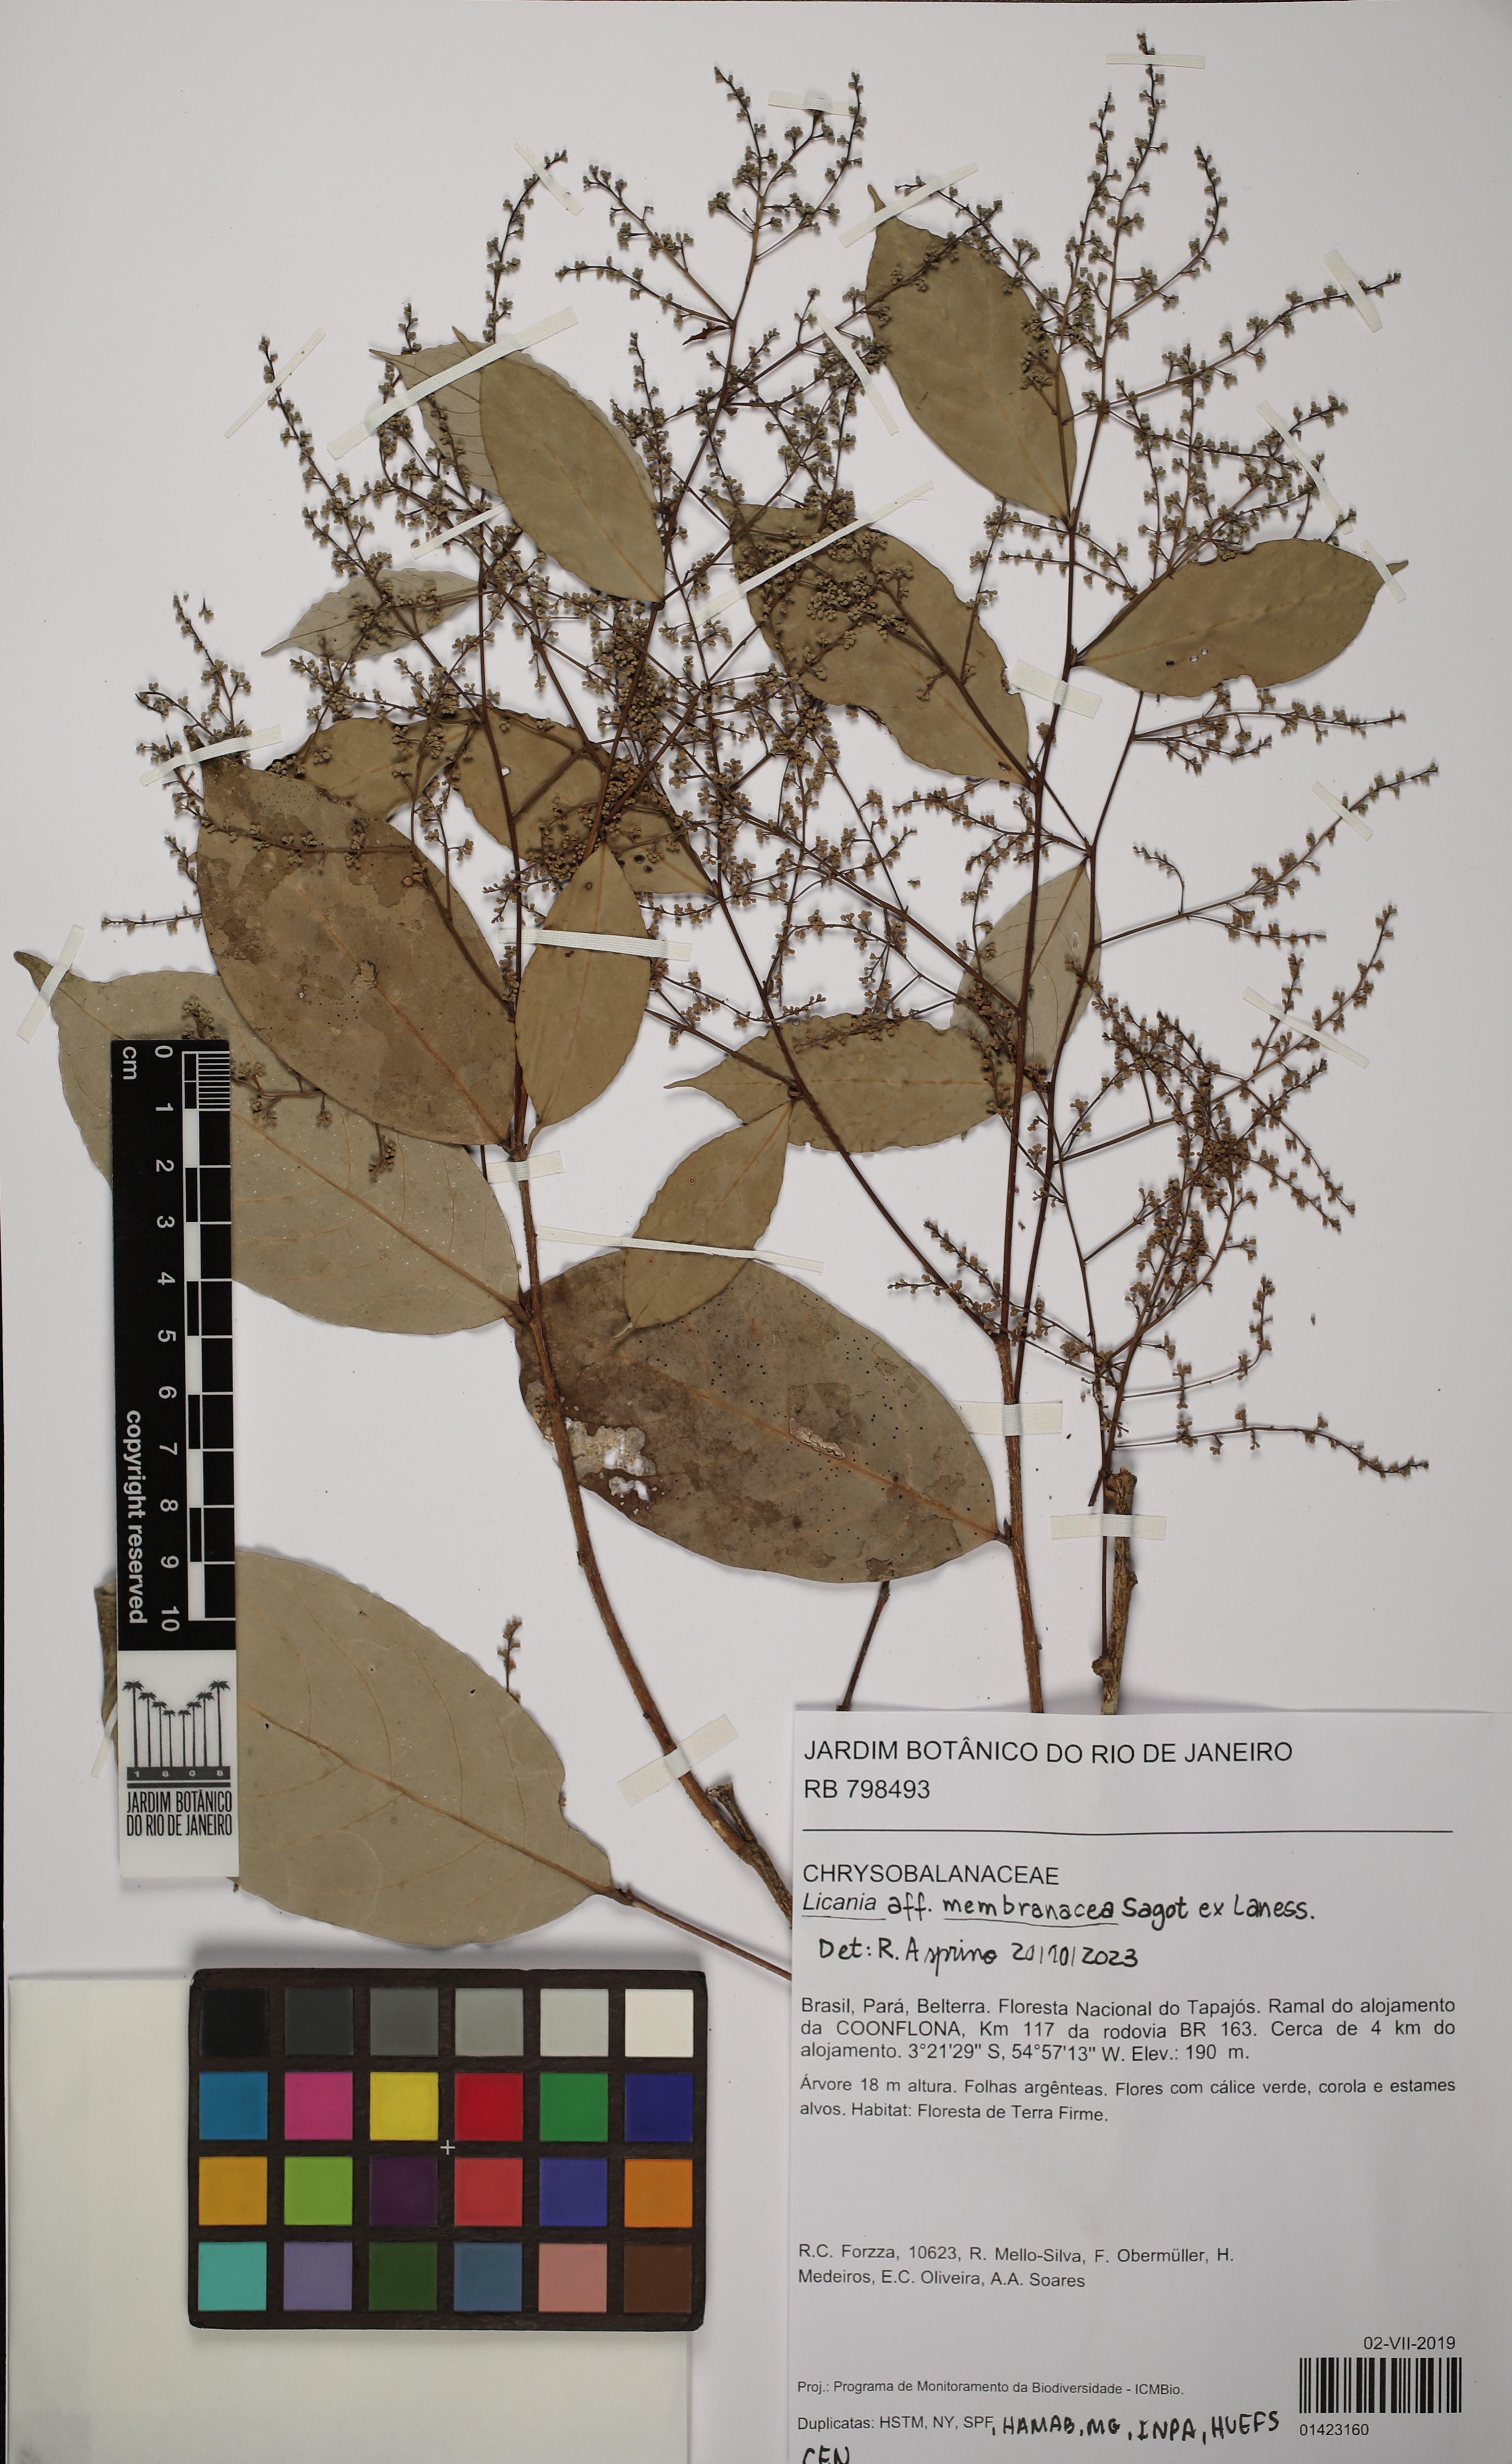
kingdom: Plantae
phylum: Tracheophyta
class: Magnoliopsida
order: Malpighiales
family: Chrysobalanaceae
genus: Licania
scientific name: Licania membranacea
